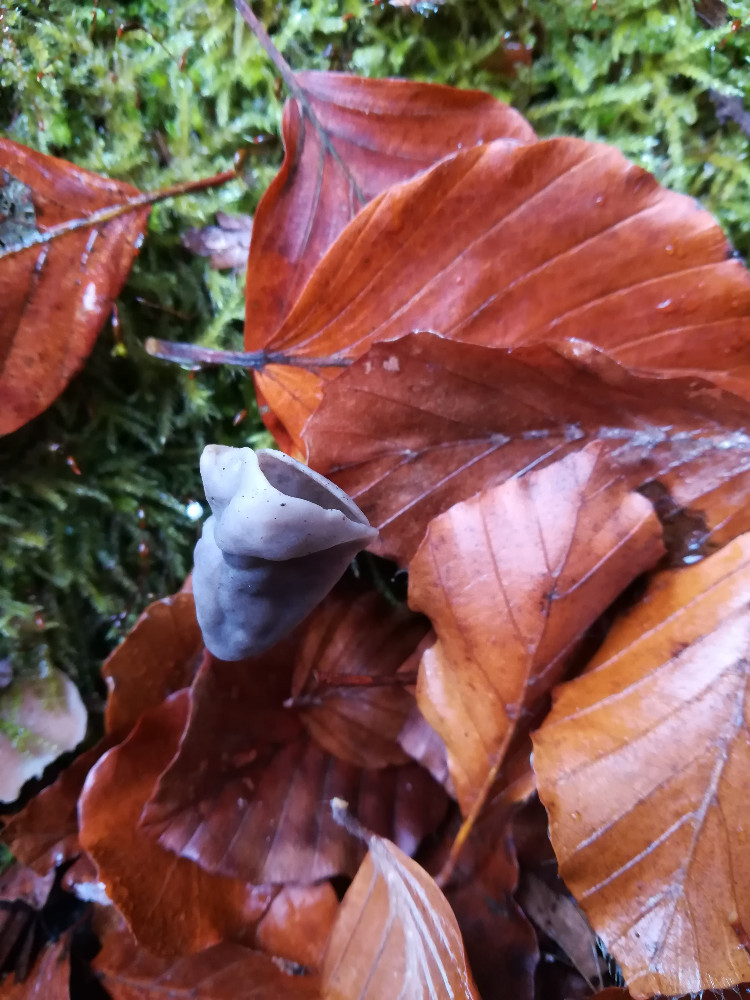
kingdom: Fungi
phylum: Ascomycota
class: Pezizomycetes
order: Pezizales
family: Helvellaceae
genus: Helvella
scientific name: Helvella lacunosa
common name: grubet foldhat
